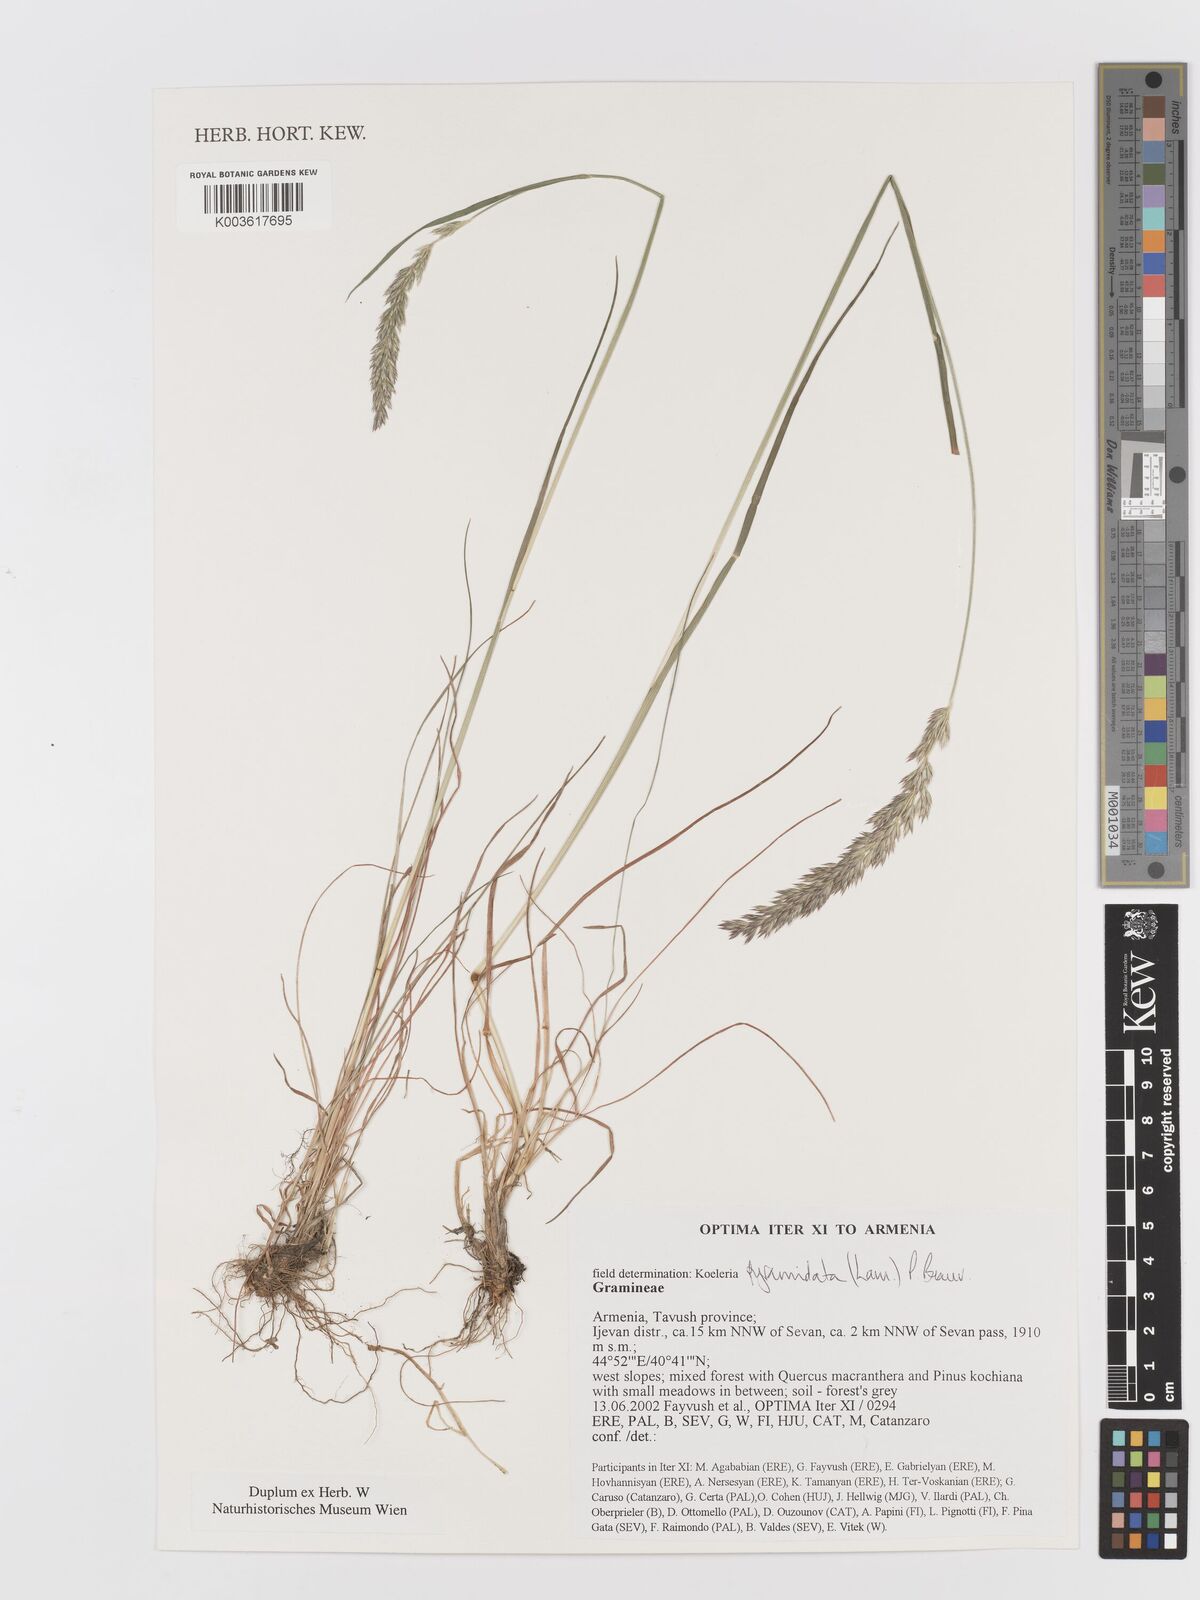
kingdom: Plantae
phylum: Tracheophyta
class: Liliopsida
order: Poales
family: Poaceae
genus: Koeleria
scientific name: Koeleria pyramidata
